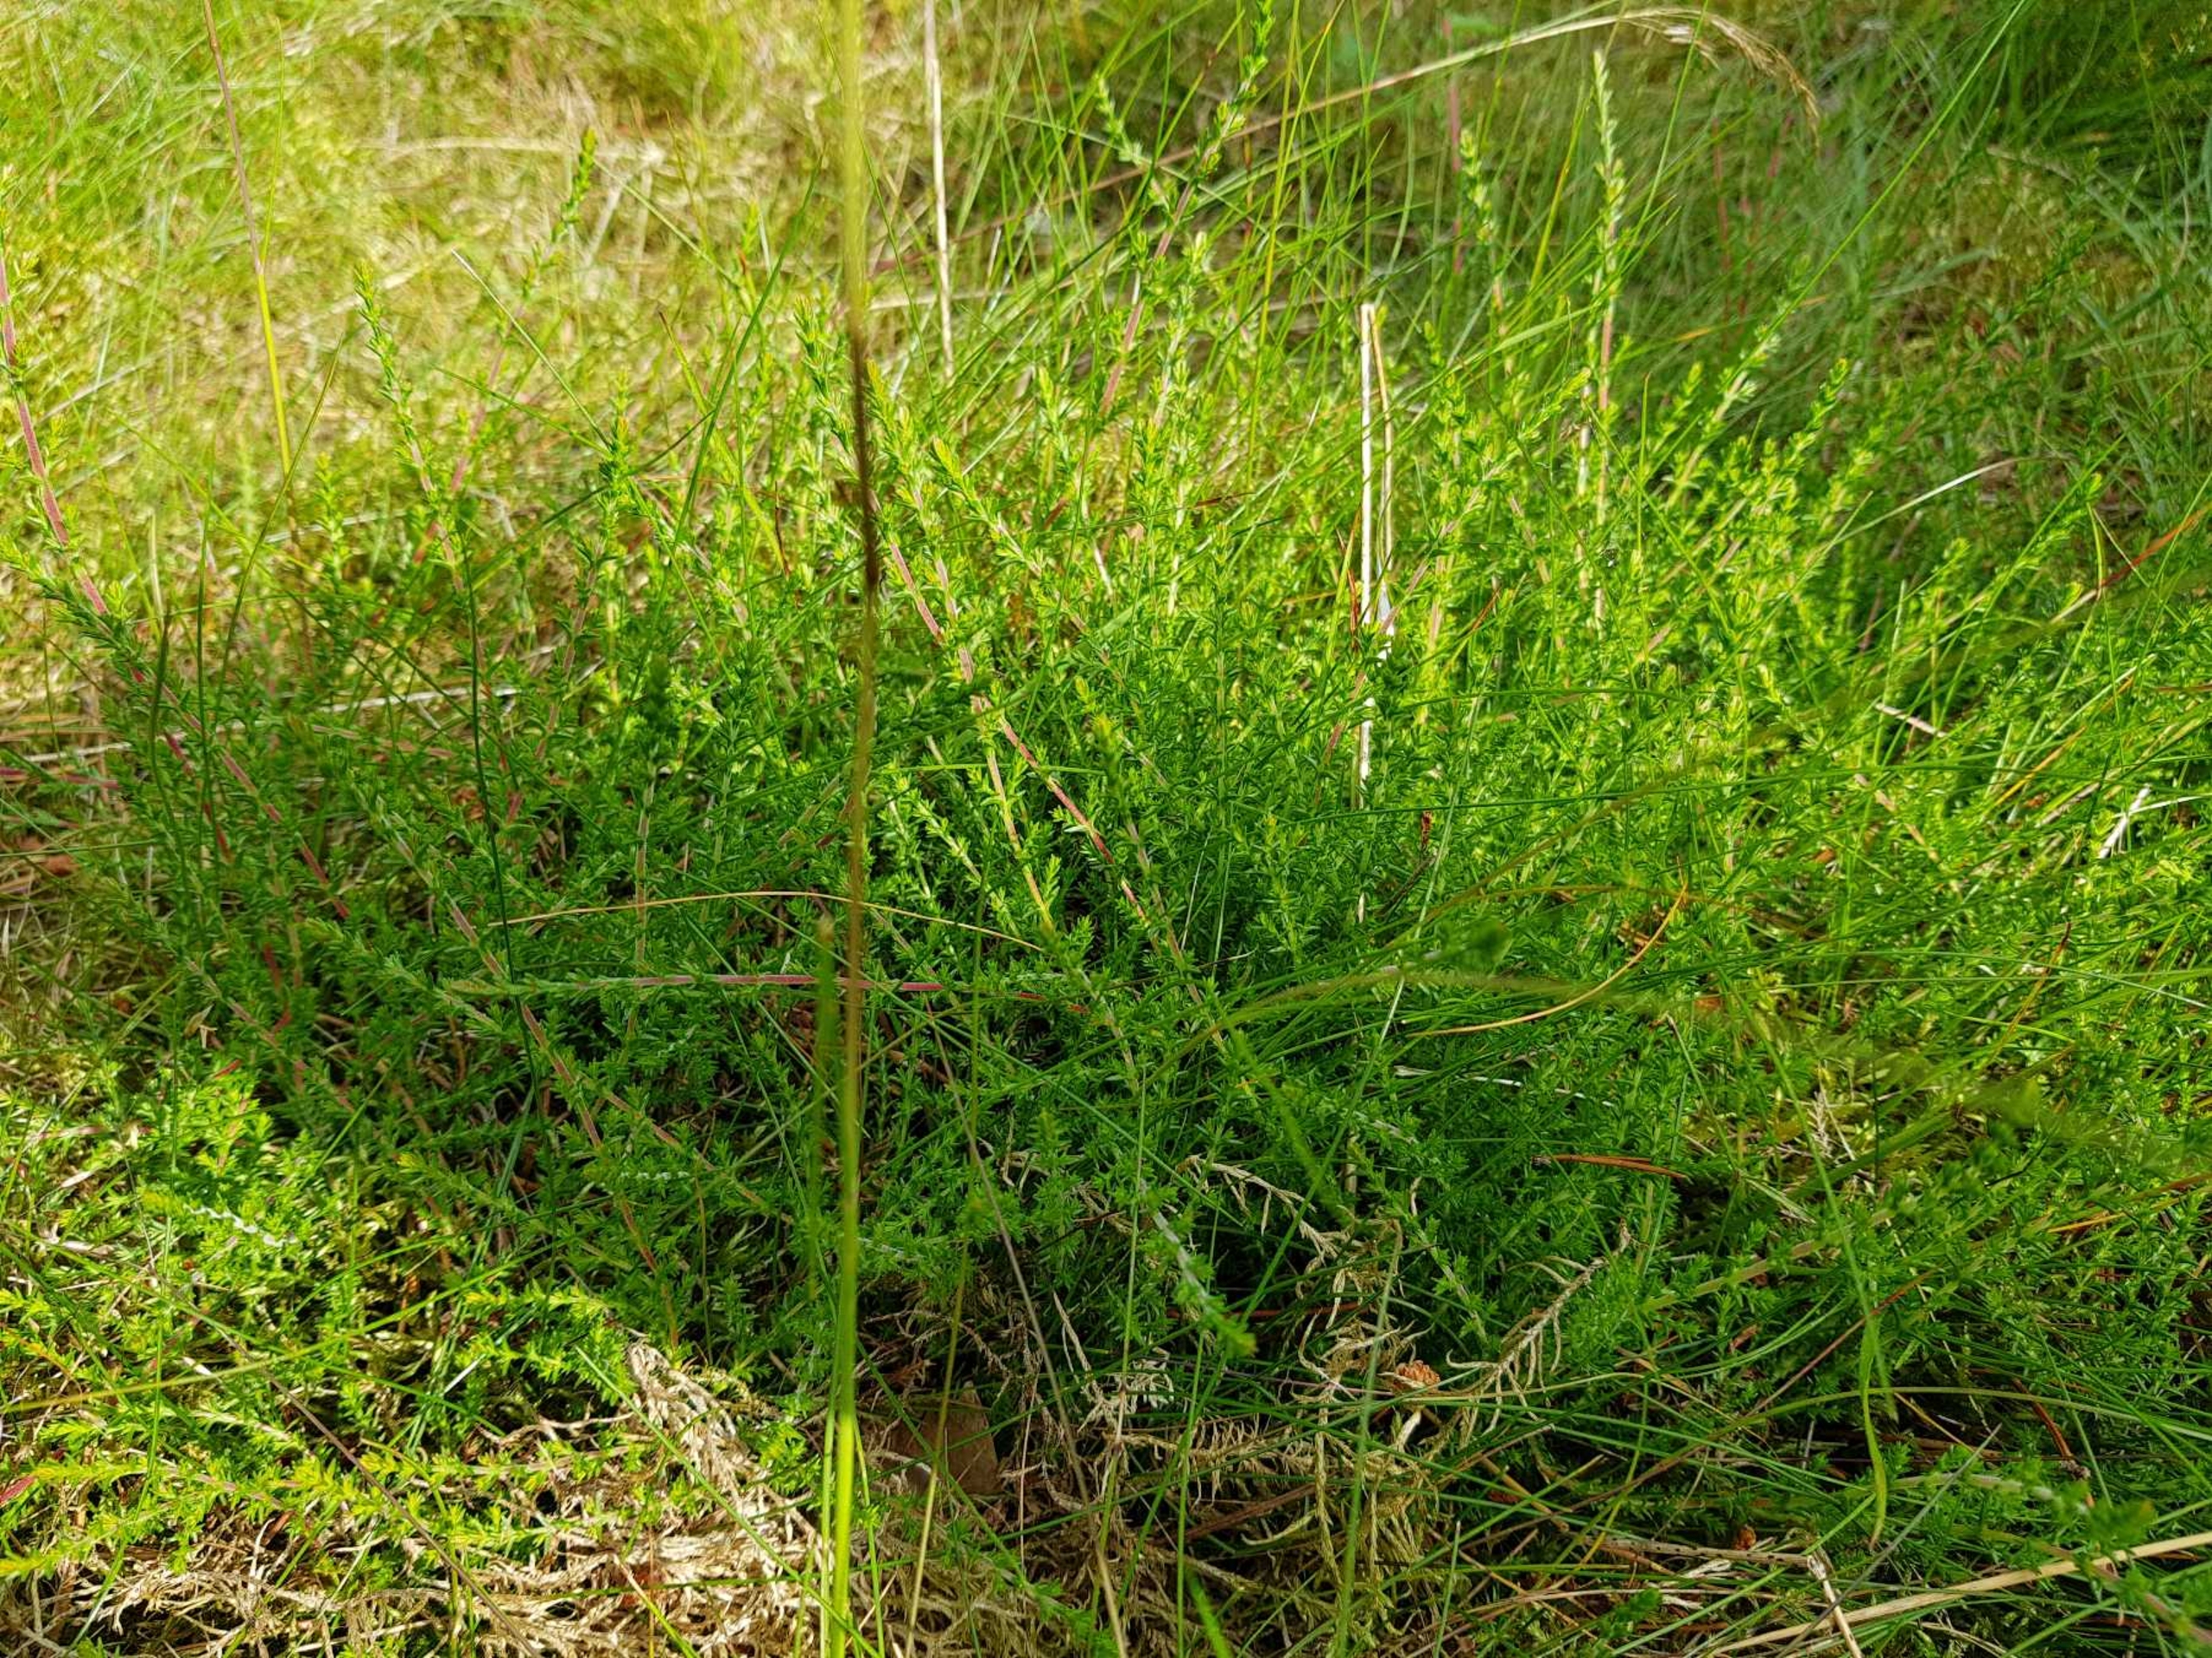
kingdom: Plantae
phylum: Tracheophyta
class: Magnoliopsida
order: Ericales
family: Ericaceae
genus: Calluna
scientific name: Calluna vulgaris
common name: Hedelyng
